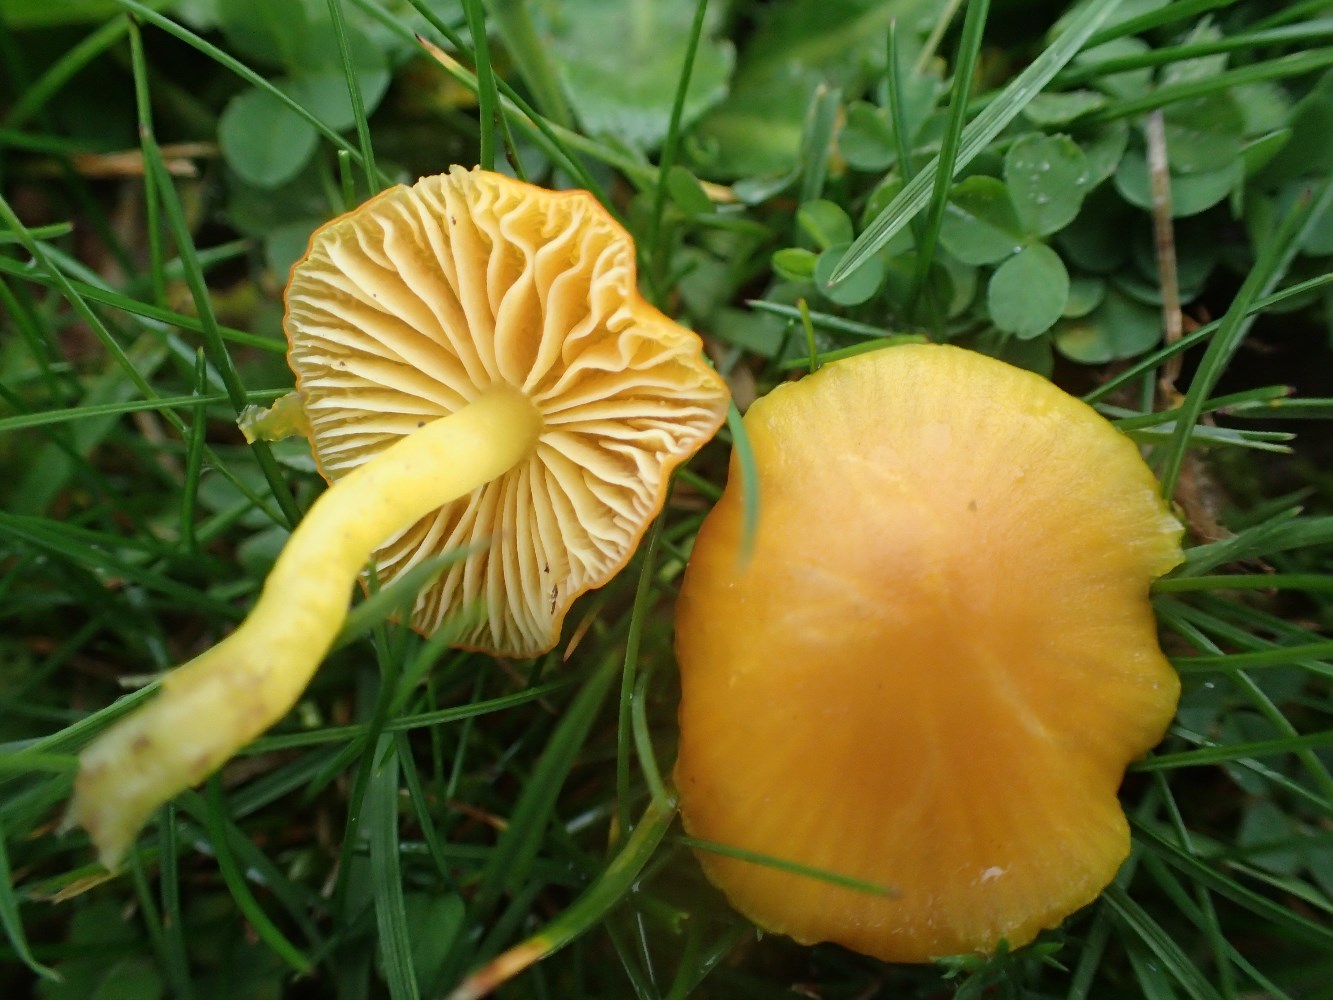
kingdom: Fungi
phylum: Basidiomycota
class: Agaricomycetes
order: Agaricales
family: Hygrophoraceae
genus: Hygrocybe
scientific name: Hygrocybe ceracea
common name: voksgul vokshat
